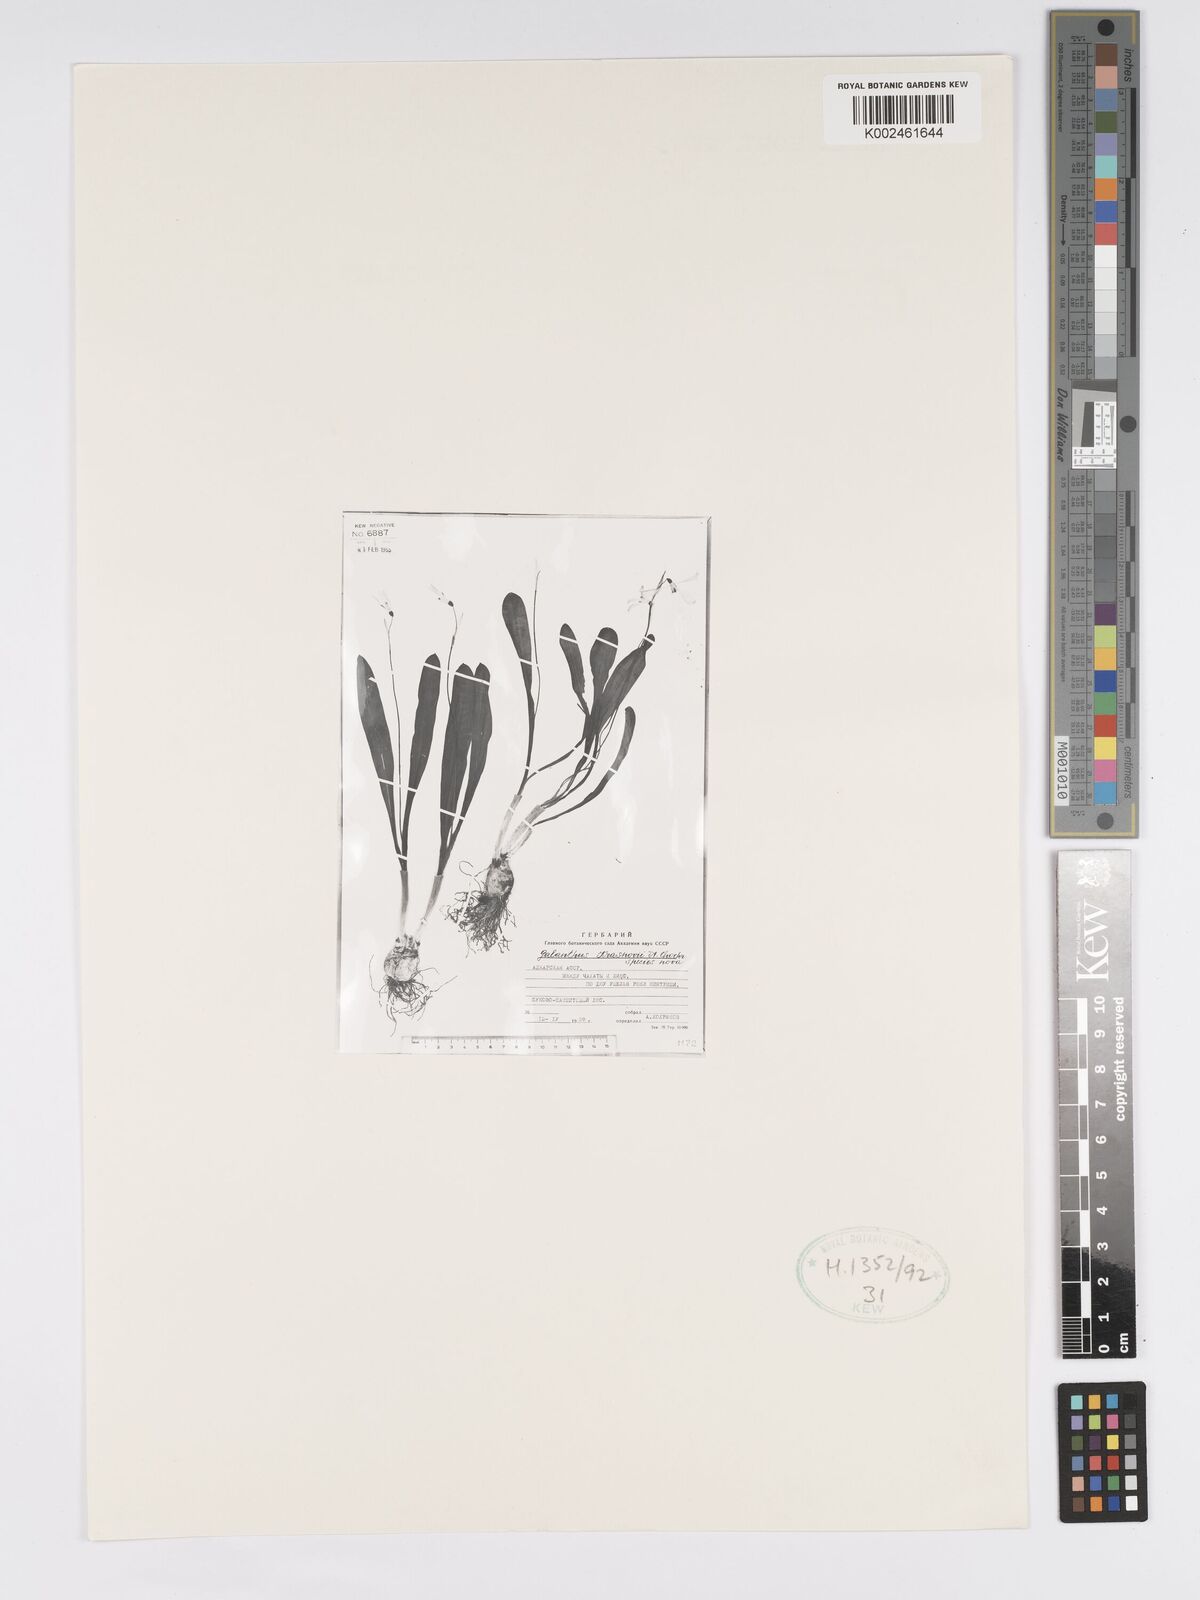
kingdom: Plantae
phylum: Tracheophyta
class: Liliopsida
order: Asparagales
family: Amaryllidaceae
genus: Galanthus
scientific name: Galanthus krasnovii
